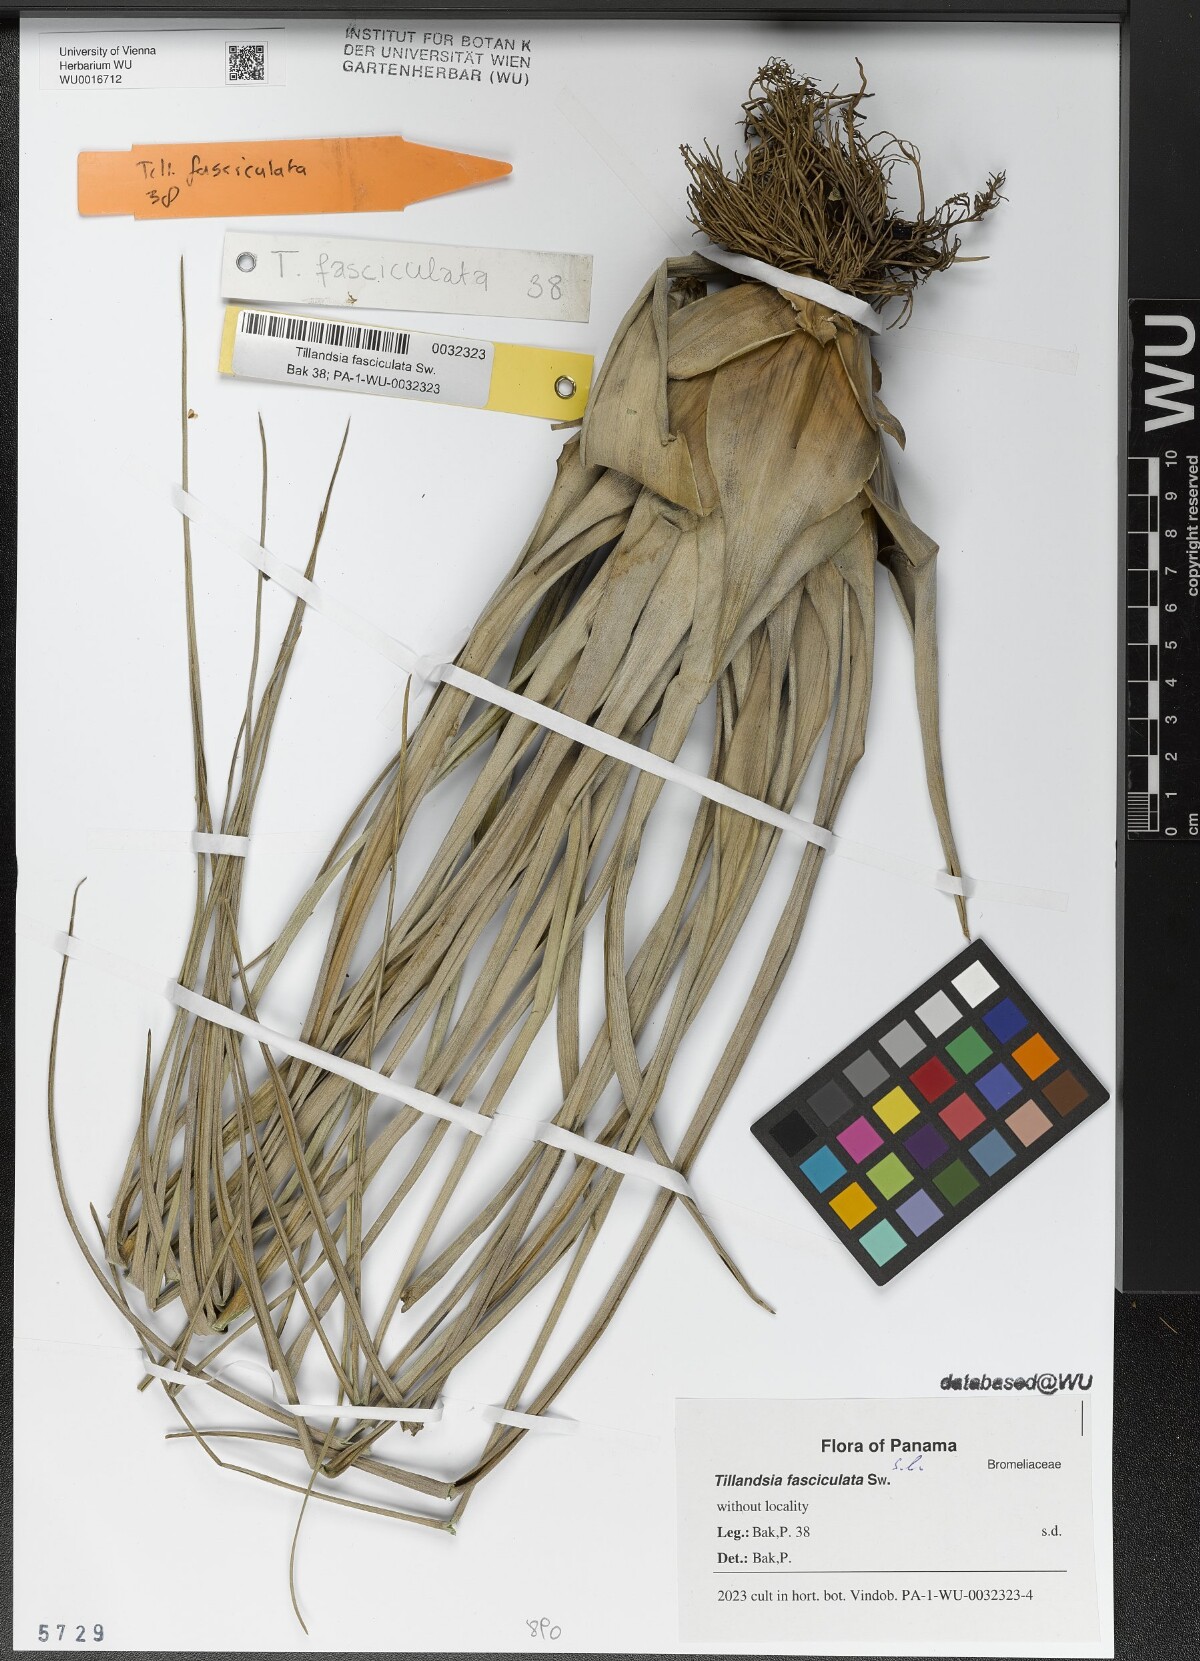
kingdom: Plantae
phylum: Tracheophyta
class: Liliopsida
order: Poales
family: Bromeliaceae
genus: Tillandsia
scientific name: Tillandsia fasciculata
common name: Giant airplant
